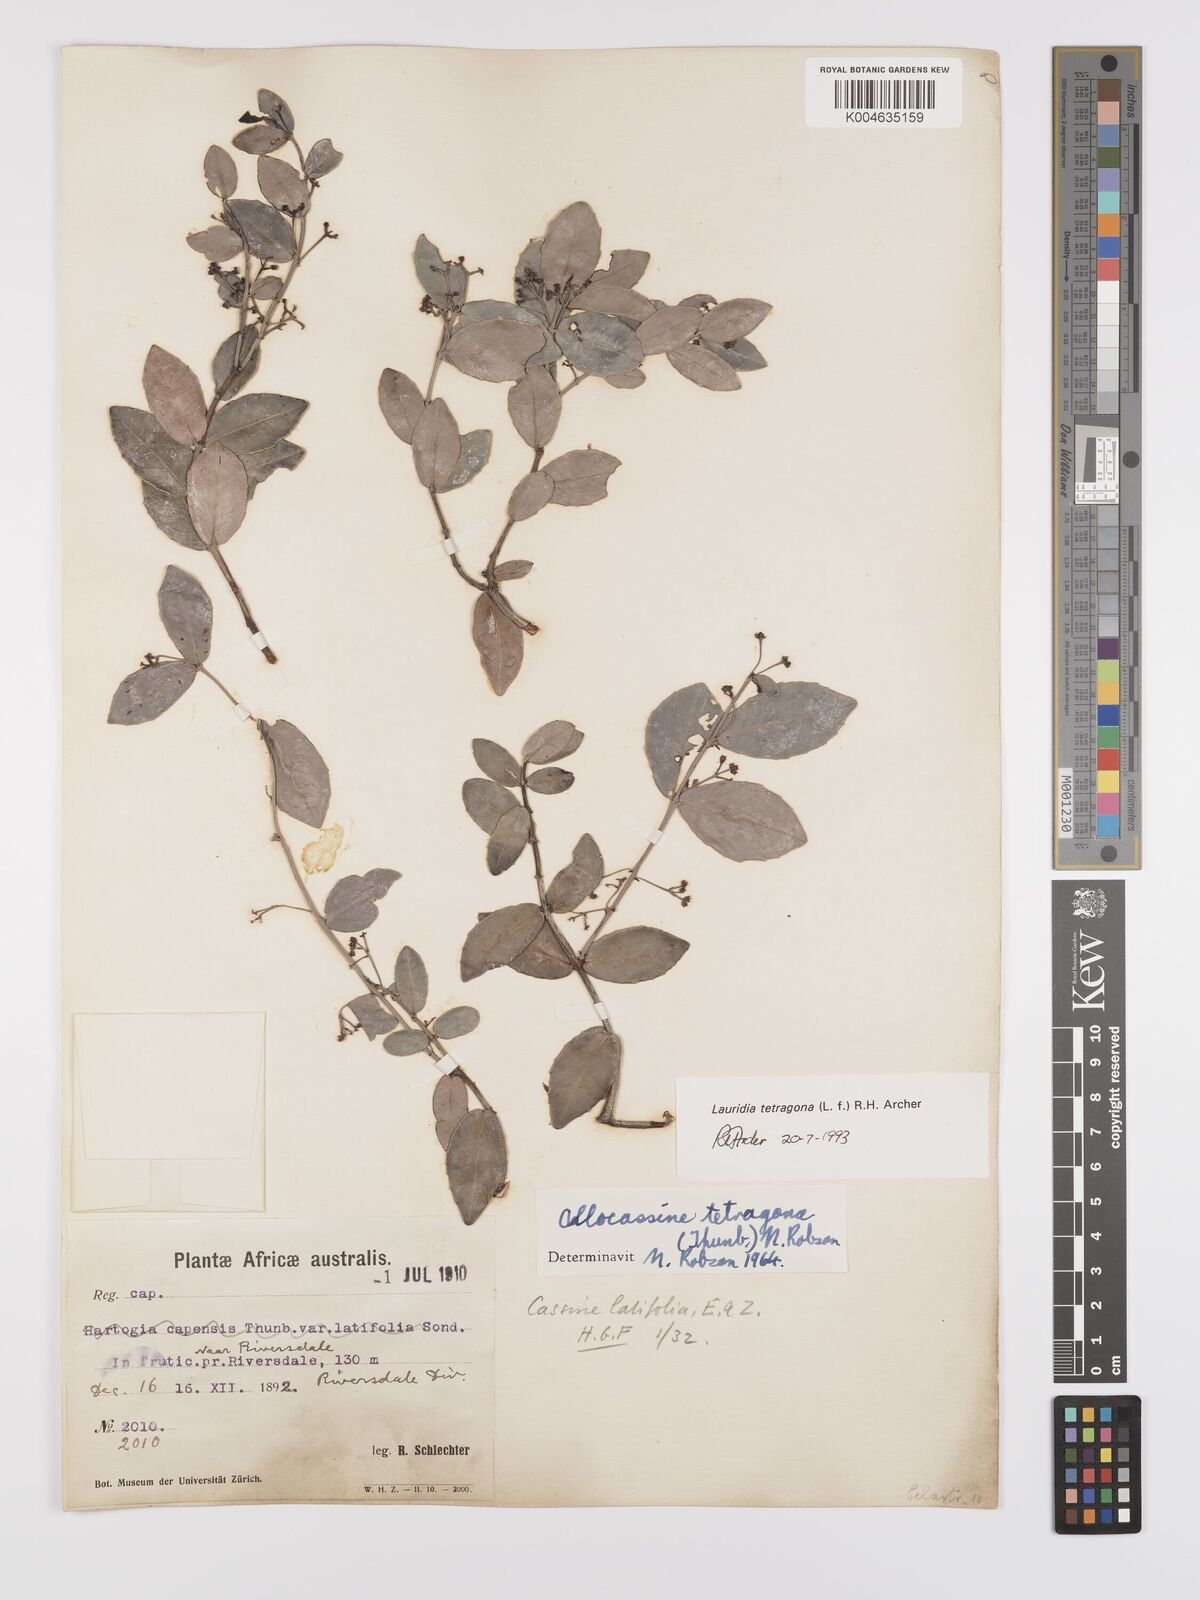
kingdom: Plantae
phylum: Tracheophyta
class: Magnoliopsida
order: Celastrales
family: Celastraceae
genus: Lauridia
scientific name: Lauridia tetragona
